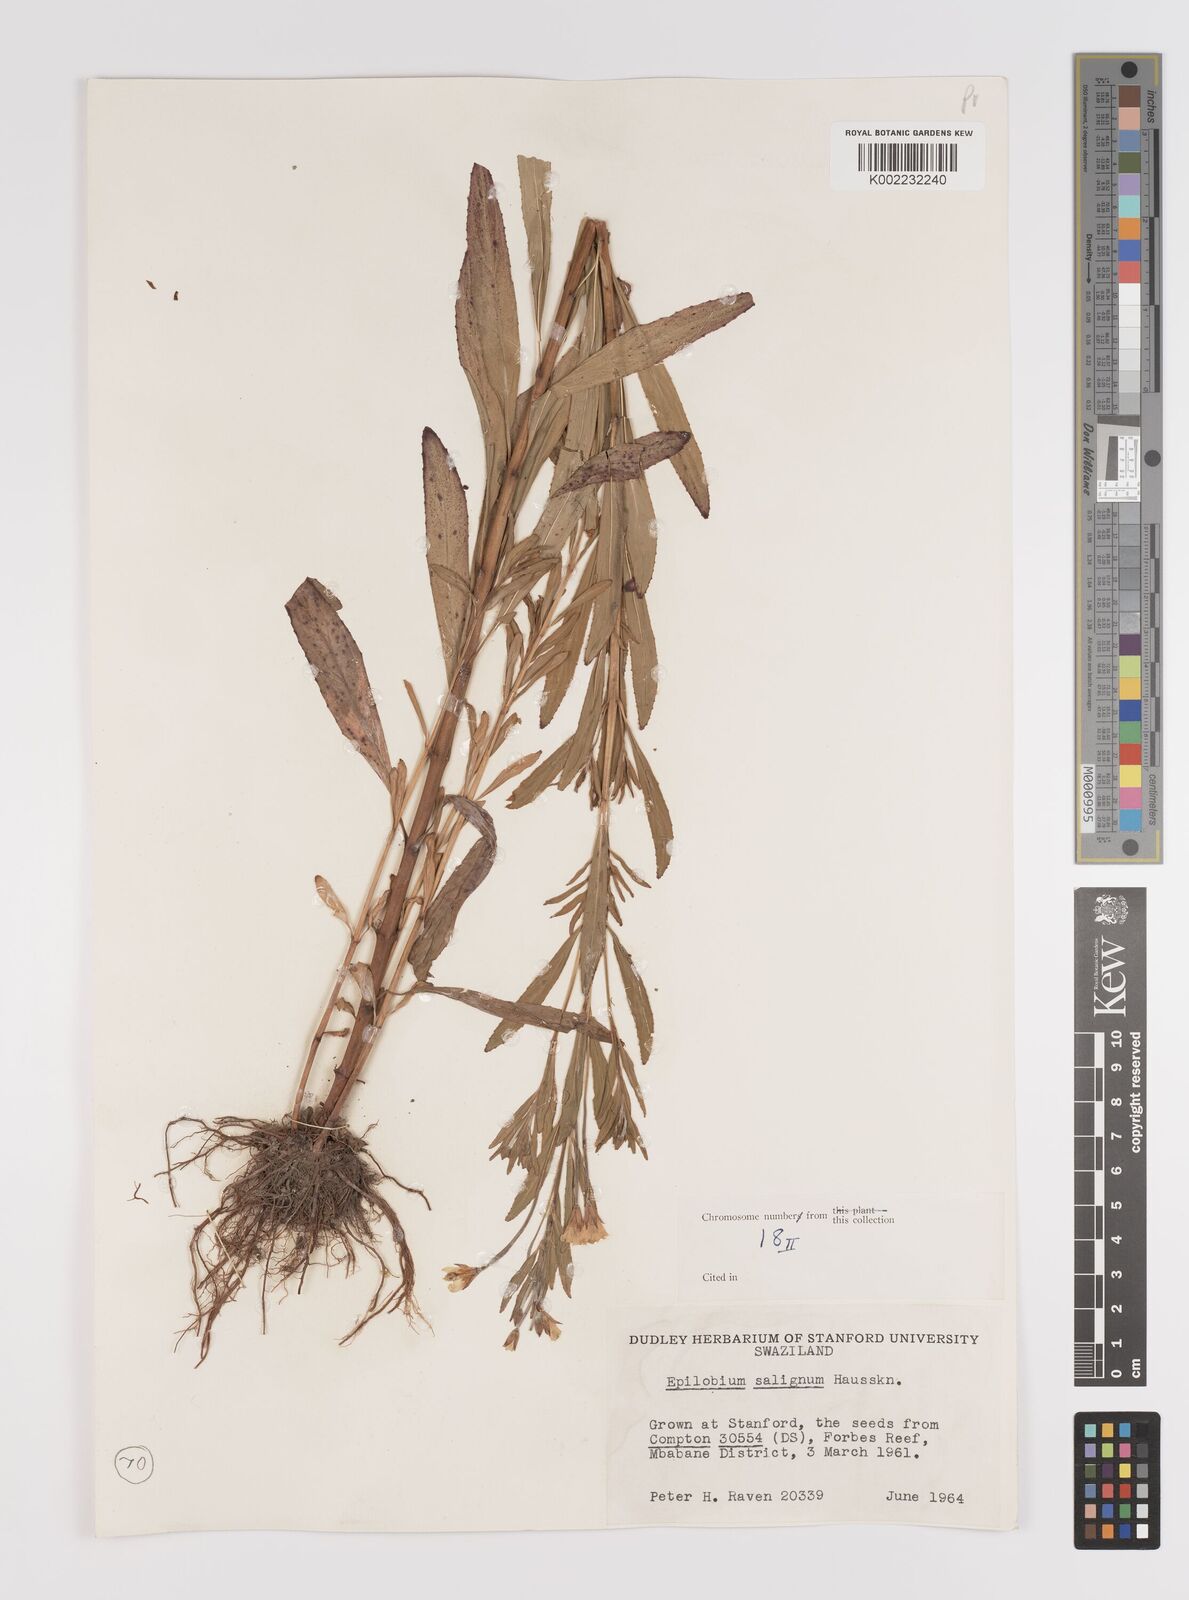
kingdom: Plantae
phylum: Tracheophyta
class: Magnoliopsida
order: Myrtales
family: Onagraceae
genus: Epilobium
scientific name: Epilobium salignum
